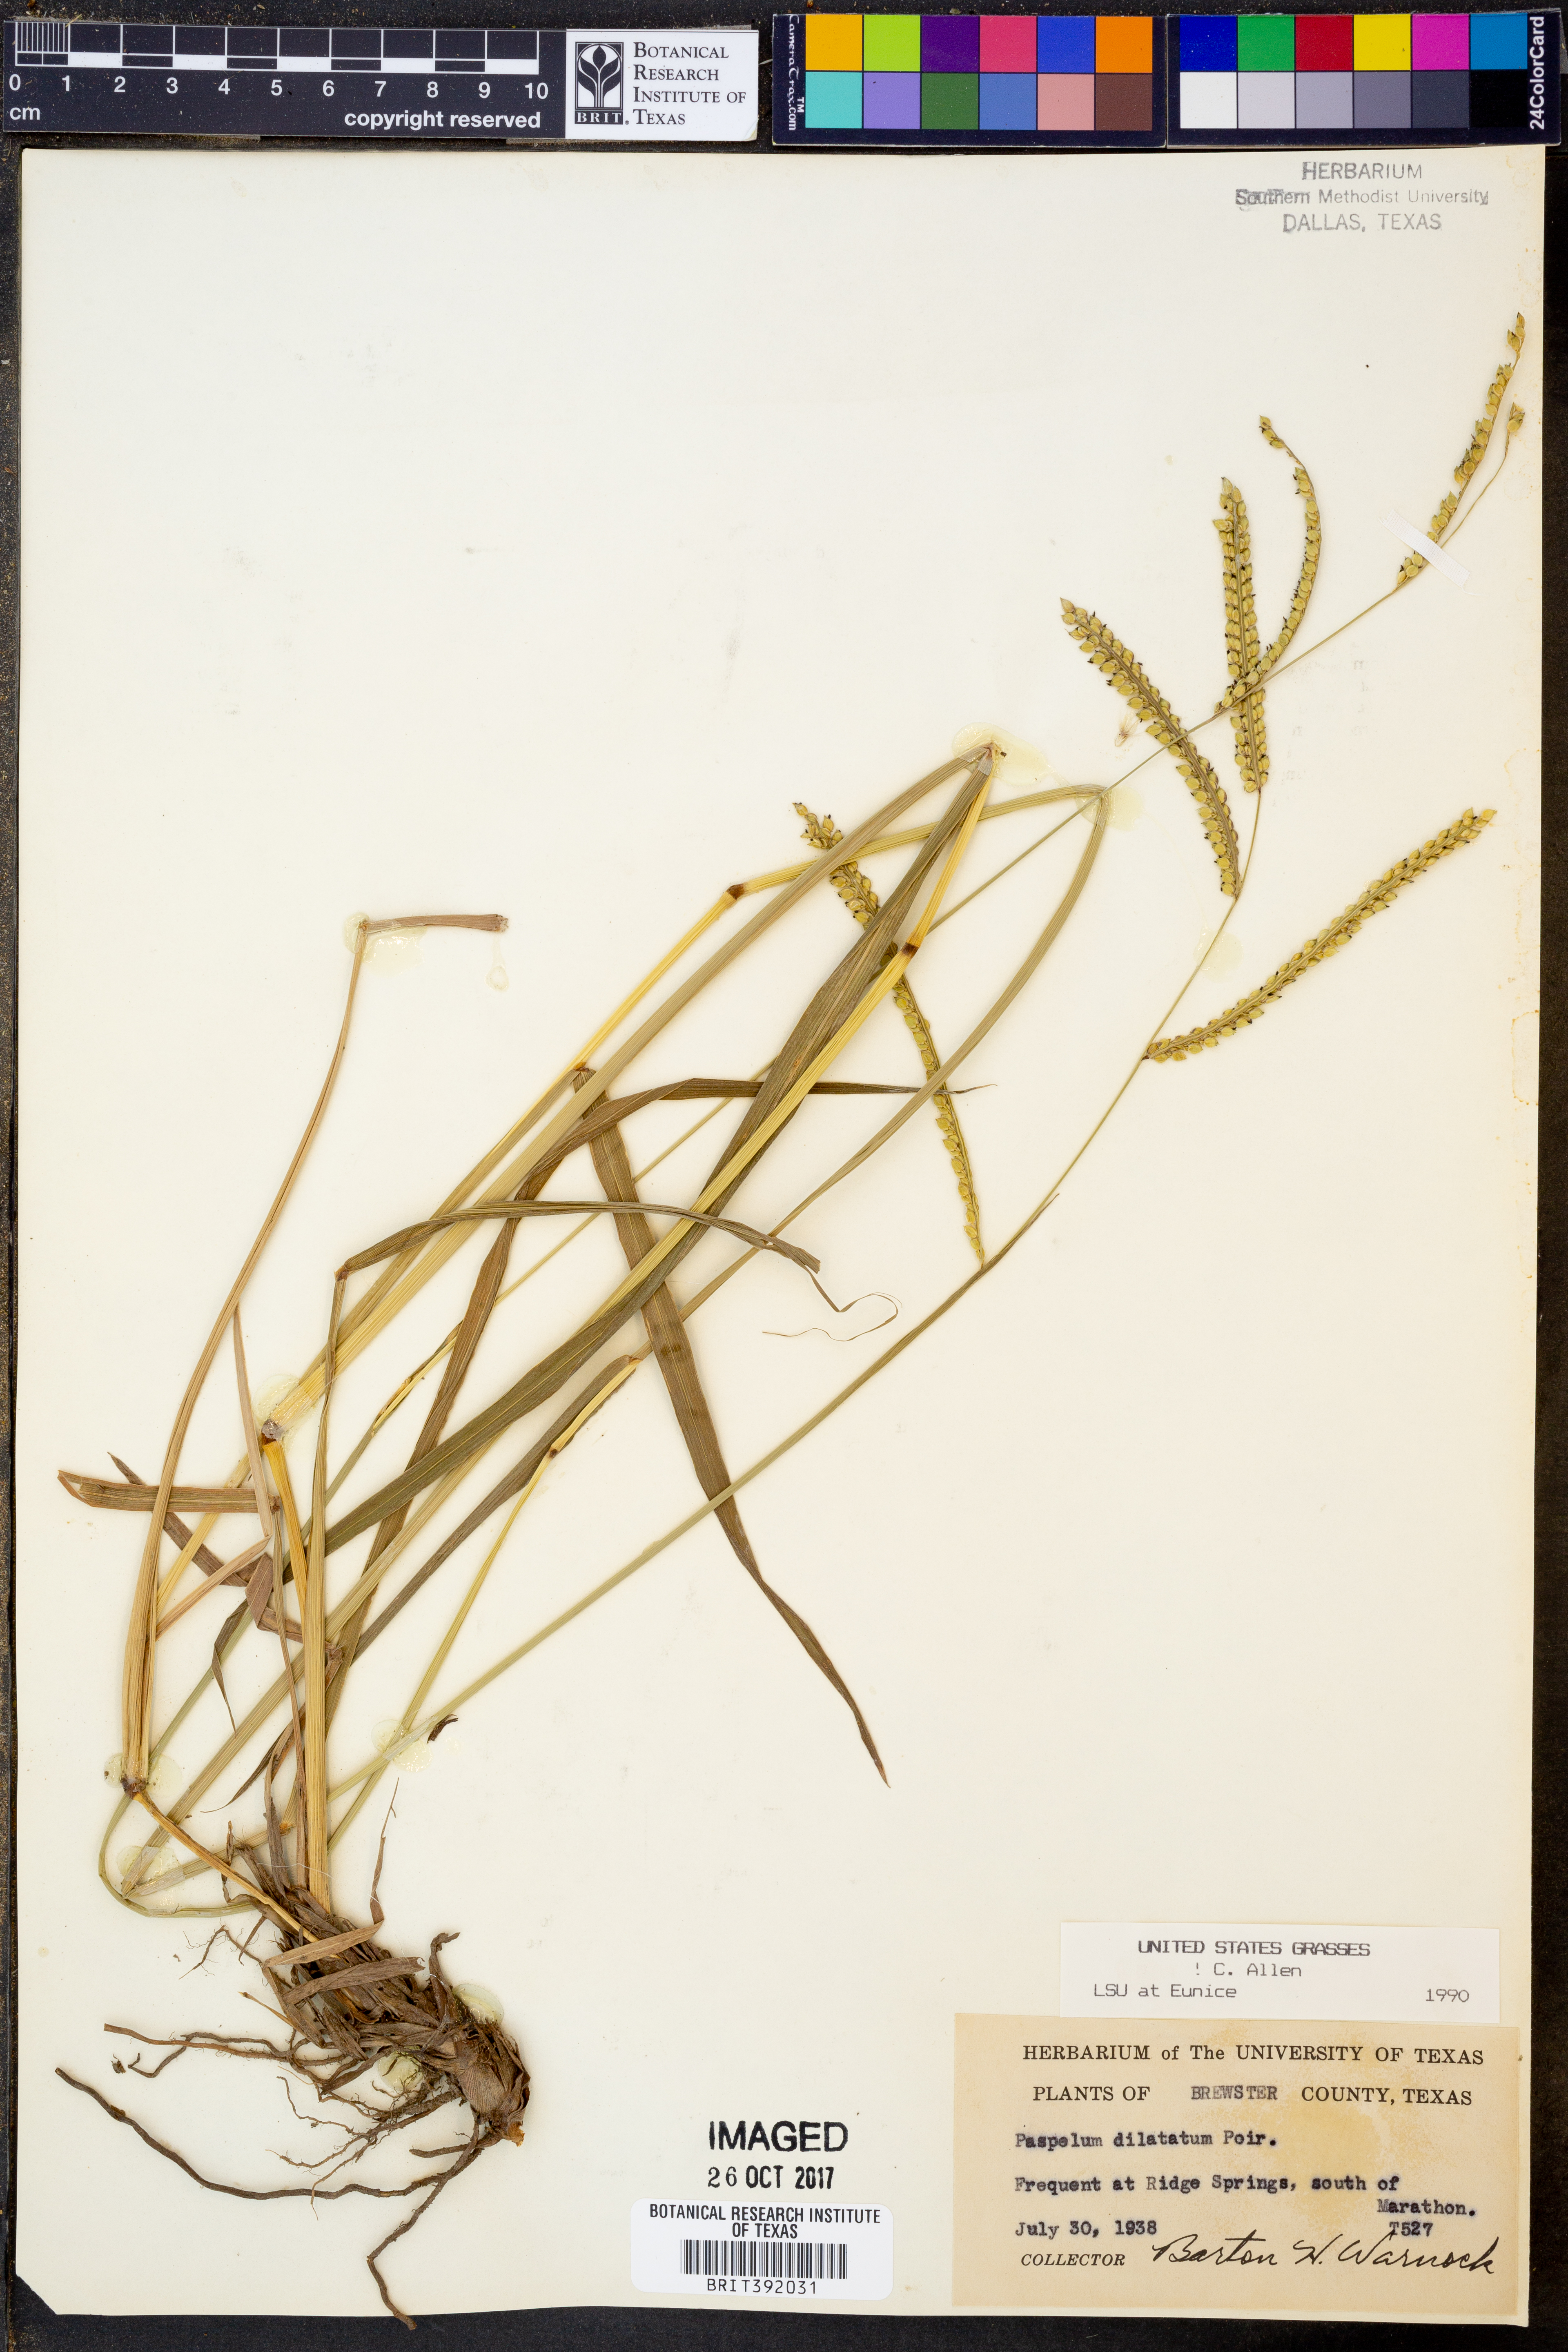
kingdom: Plantae
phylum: Tracheophyta
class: Liliopsida
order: Poales
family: Poaceae
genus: Paspalum
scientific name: Paspalum dilatatum
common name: Dallisgrass
